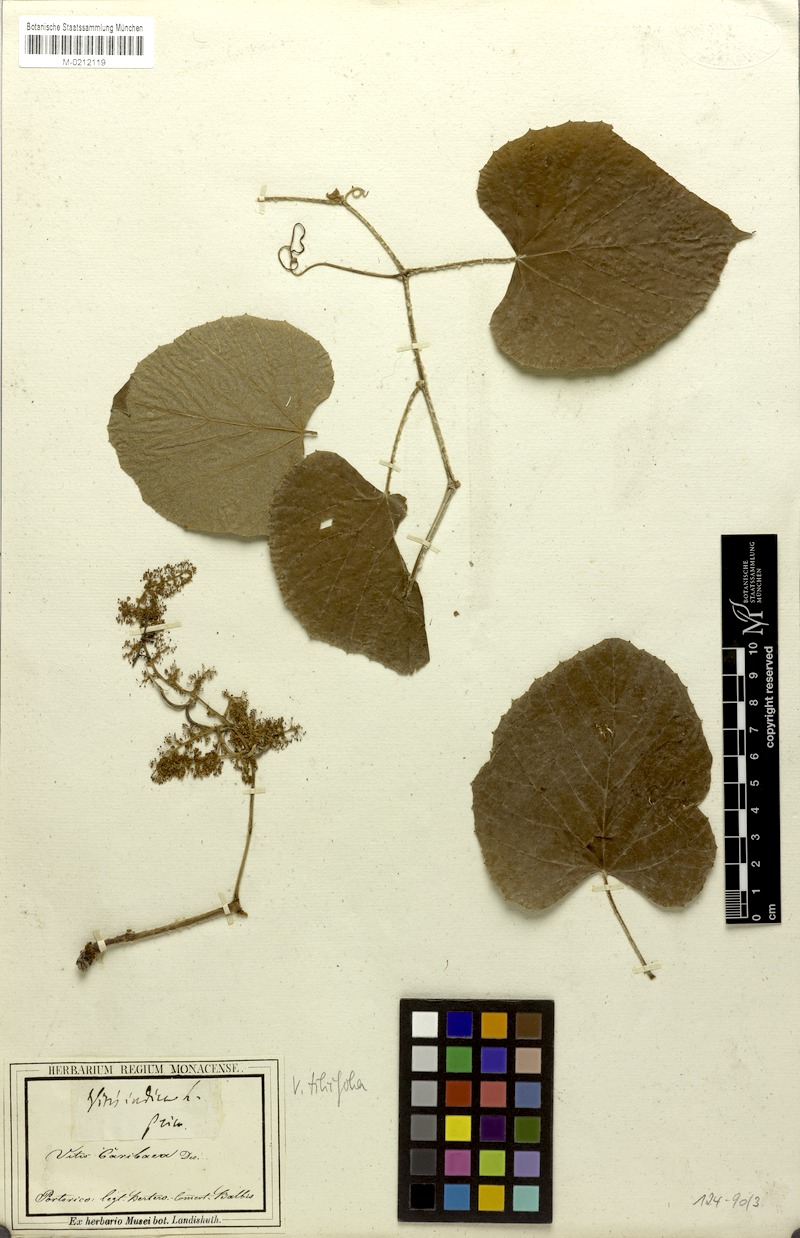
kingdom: Plantae
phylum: Tracheophyta
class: Magnoliopsida
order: Vitales
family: Vitaceae
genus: Vitis
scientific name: Vitis tiliifolia
